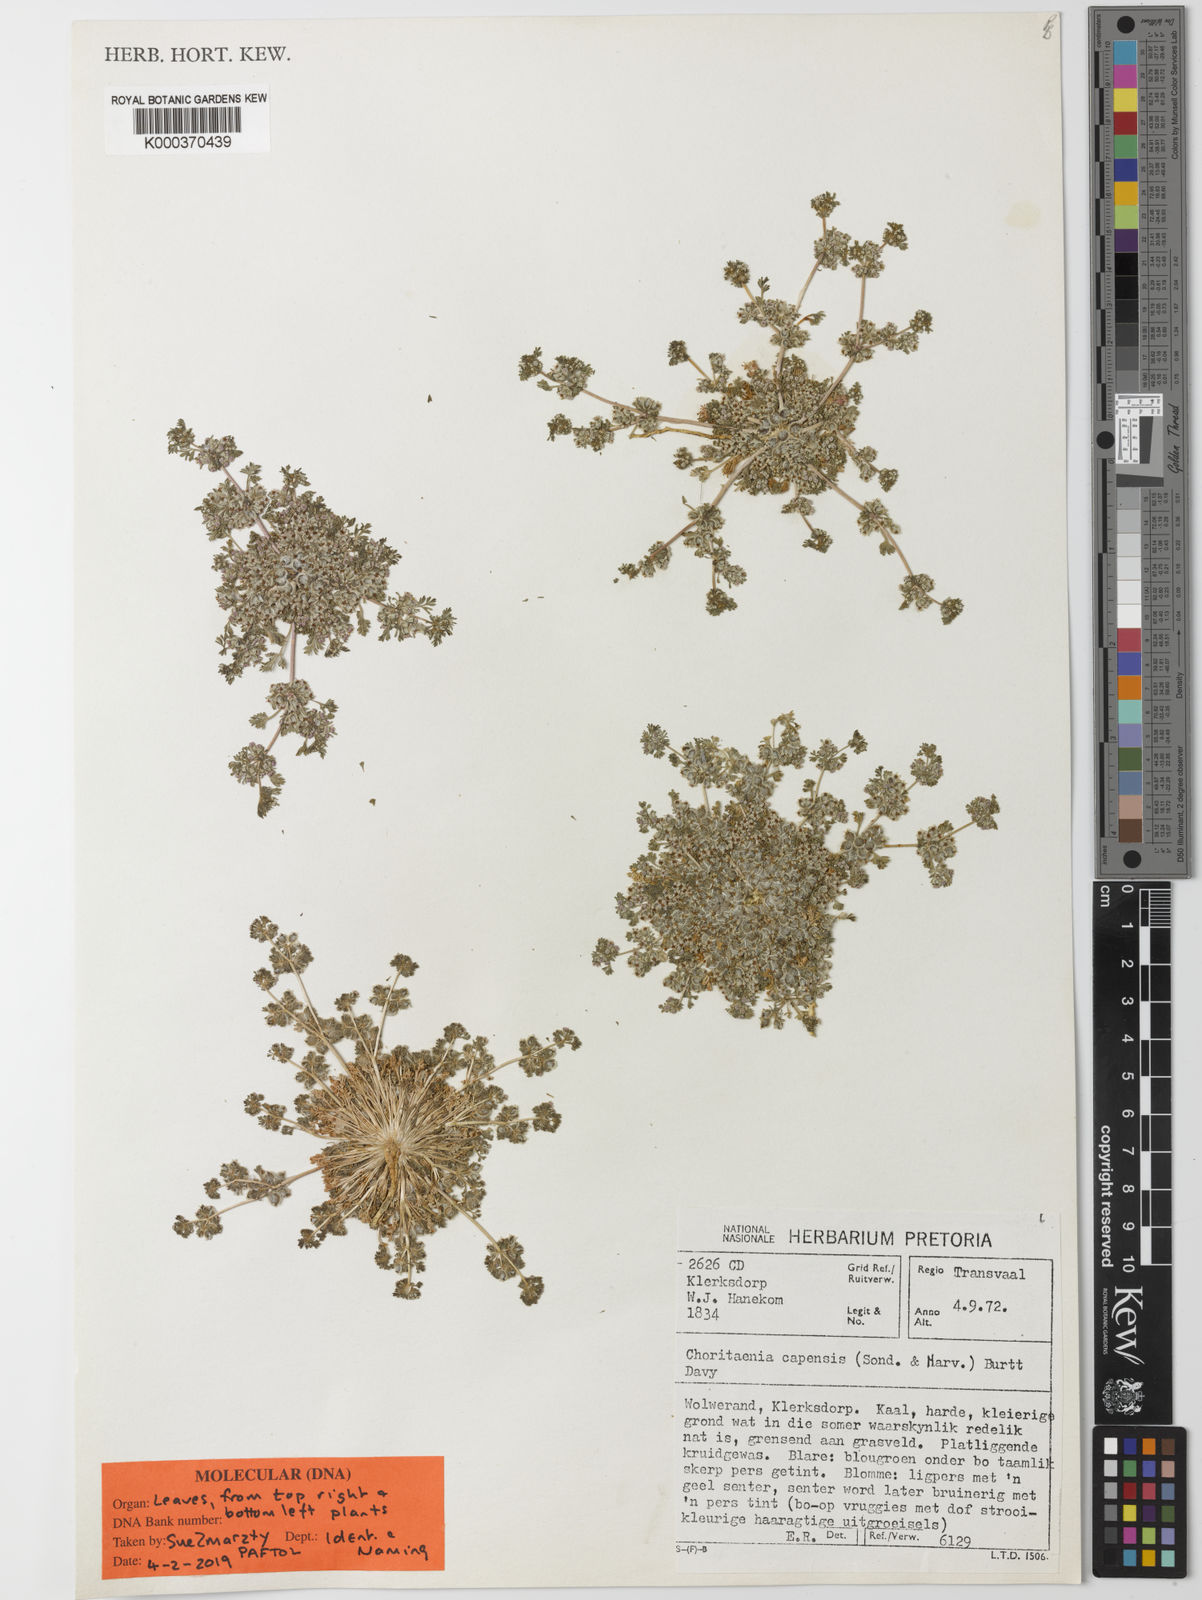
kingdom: Plantae
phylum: Tracheophyta
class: Magnoliopsida
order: Apiales
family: Apiaceae
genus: Choritaenia
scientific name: Choritaenia
